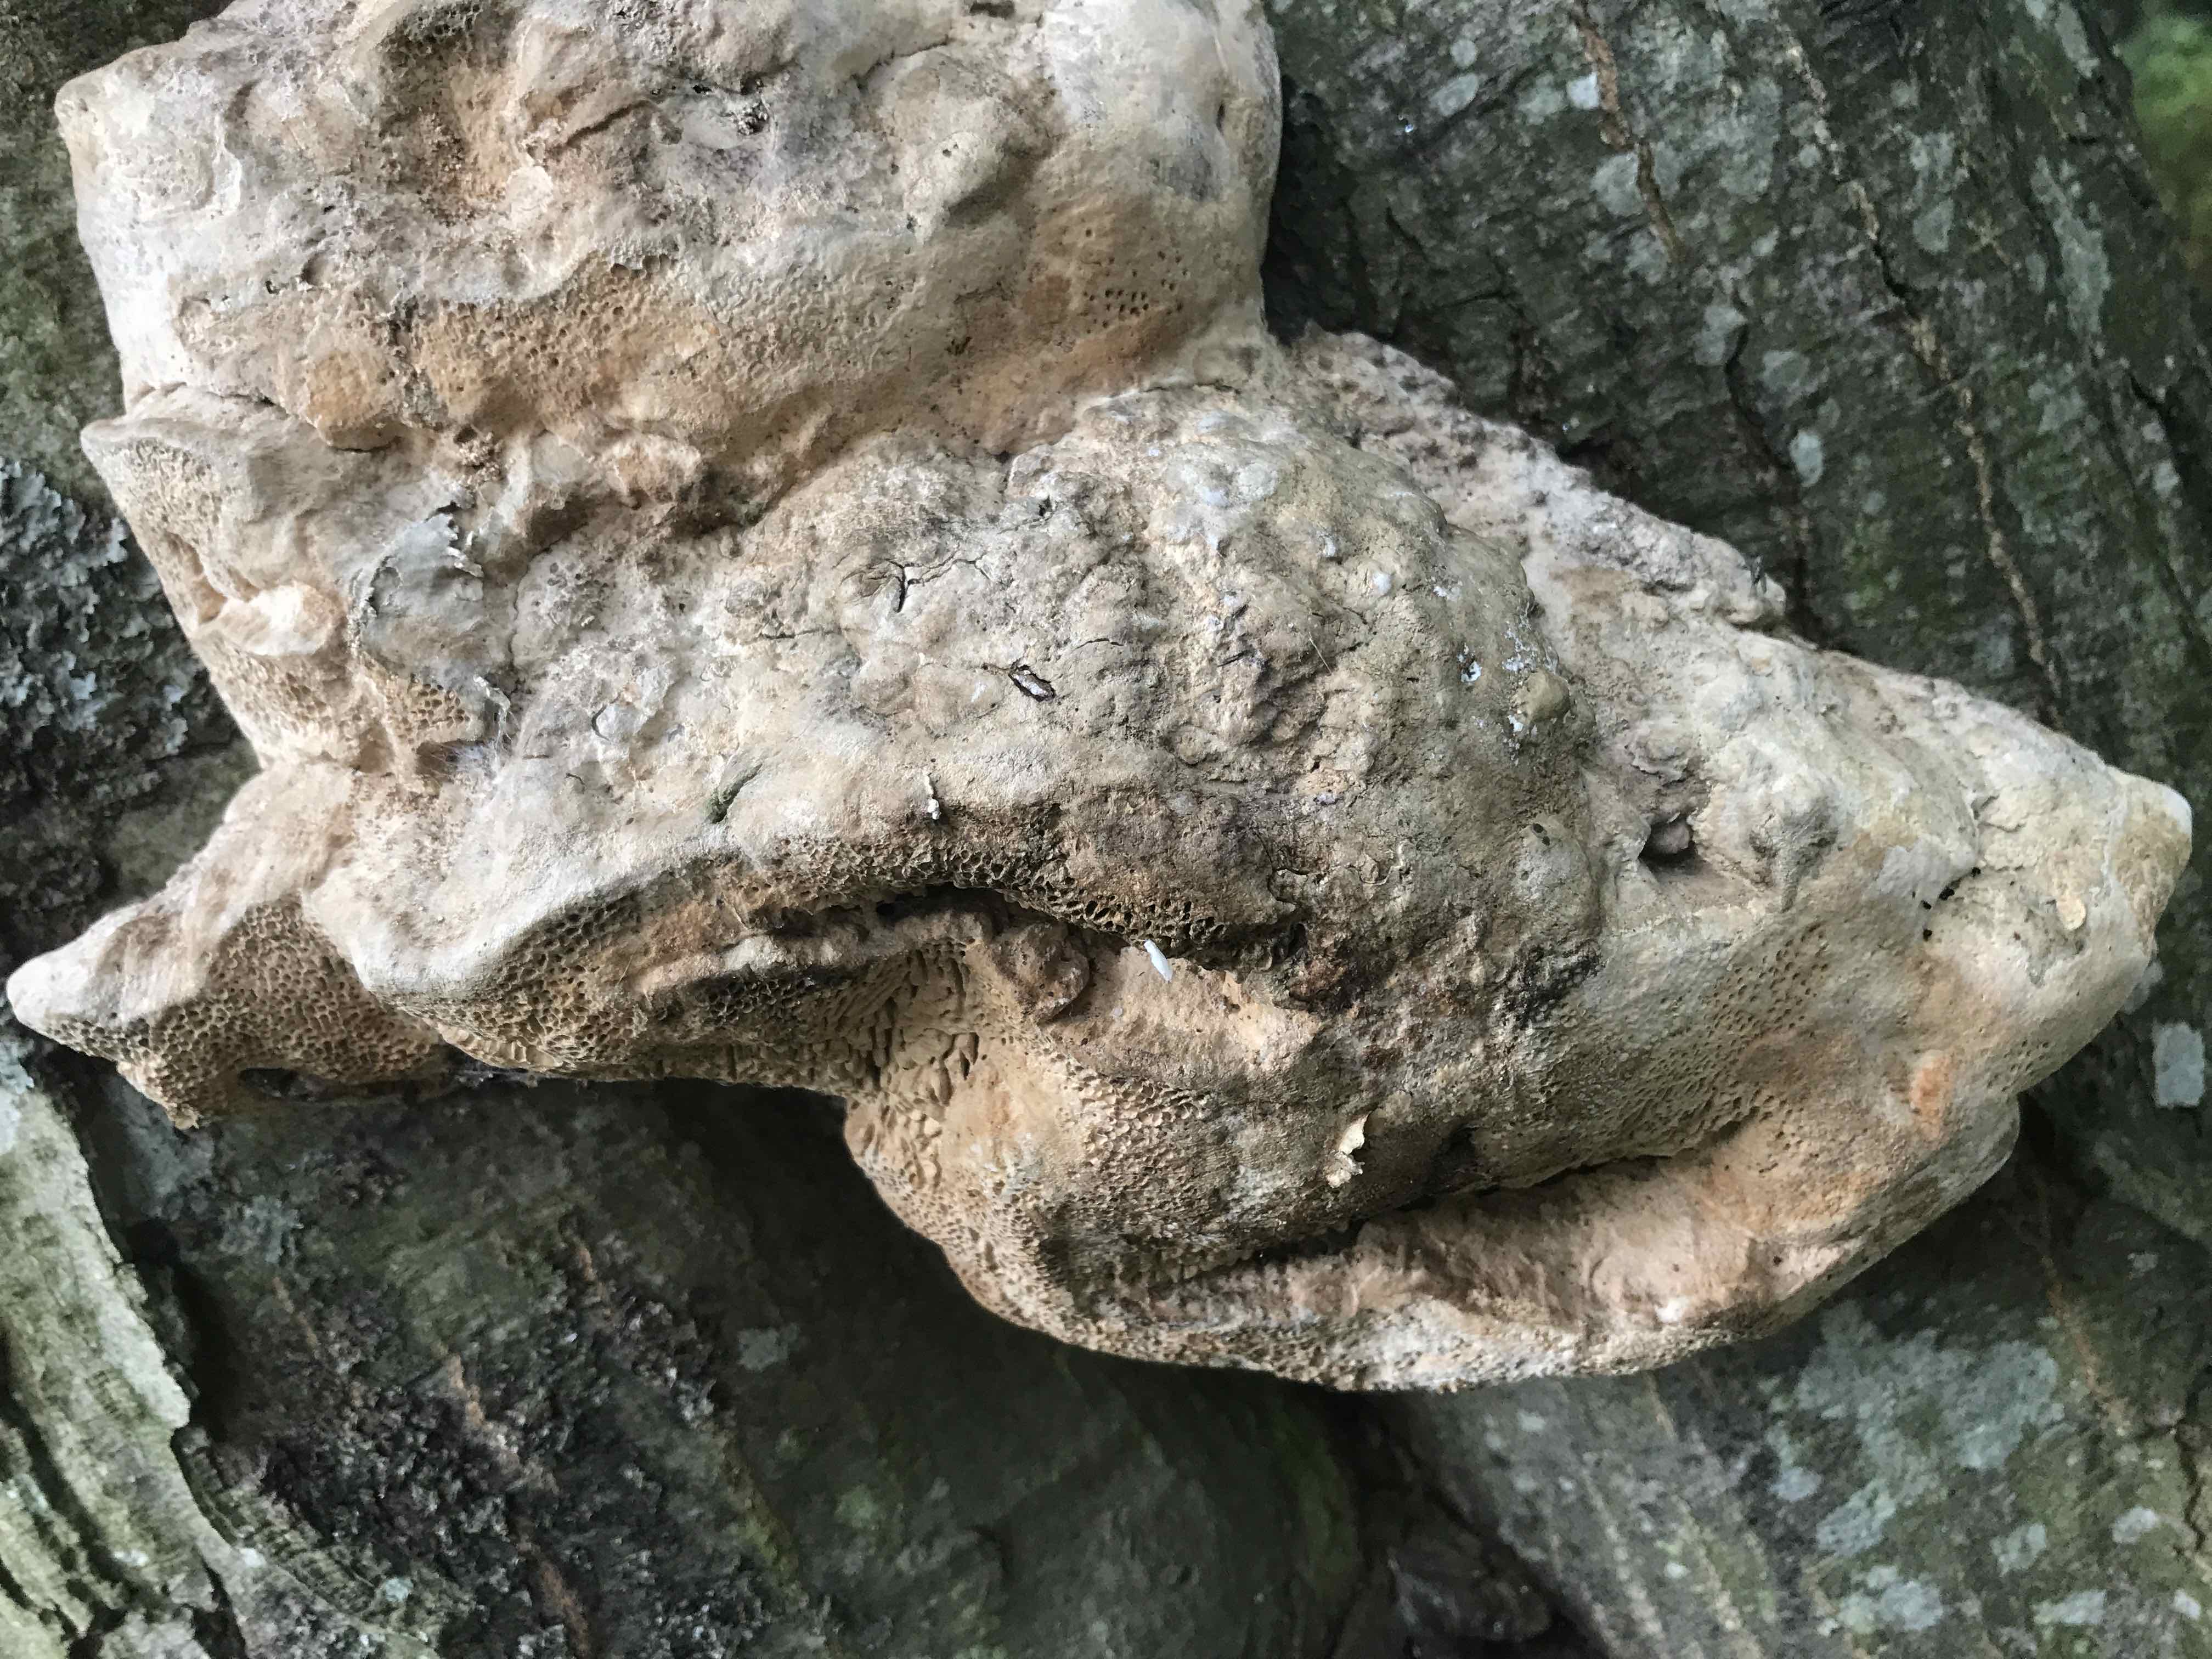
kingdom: Fungi
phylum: Basidiomycota
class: Agaricomycetes
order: Polyporales
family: Fomitopsidaceae
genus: Daedalea
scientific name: Daedalea quercina
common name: ege-labyrintsvamp
